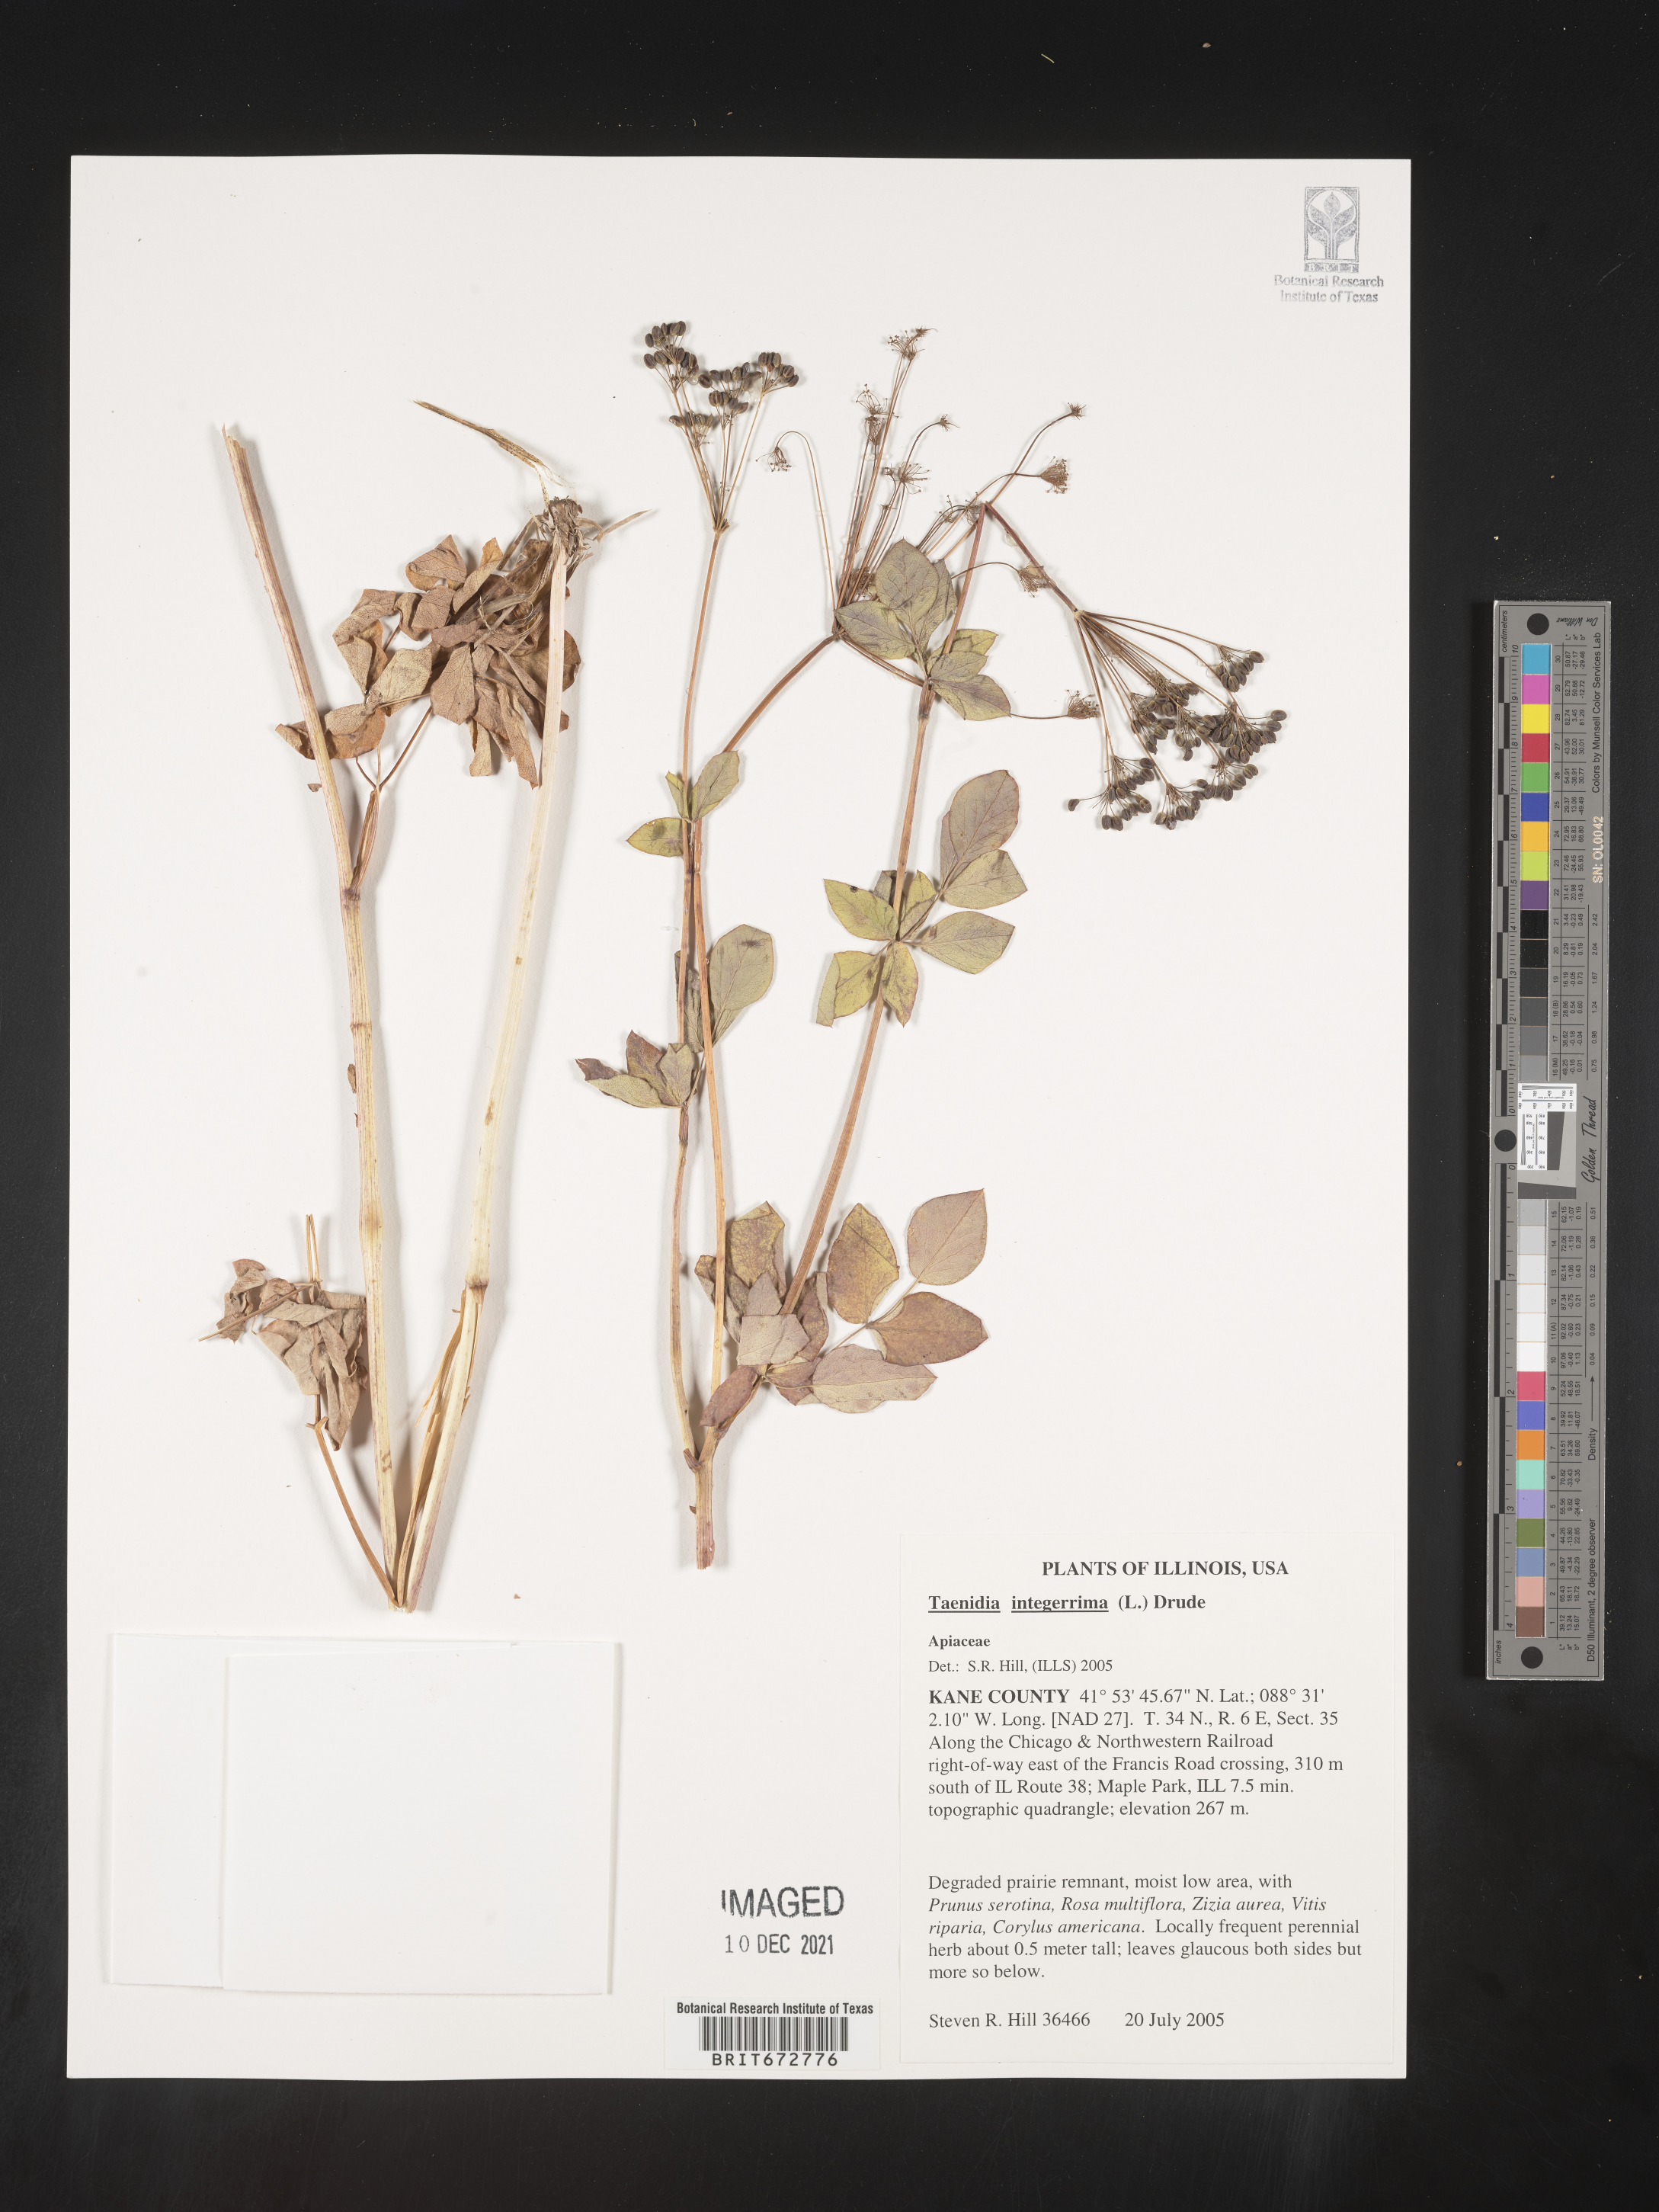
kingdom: Plantae
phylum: Tracheophyta
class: Magnoliopsida
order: Apiales
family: Apiaceae
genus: Taenidia
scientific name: Taenidia integerrima
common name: Golden alexander
